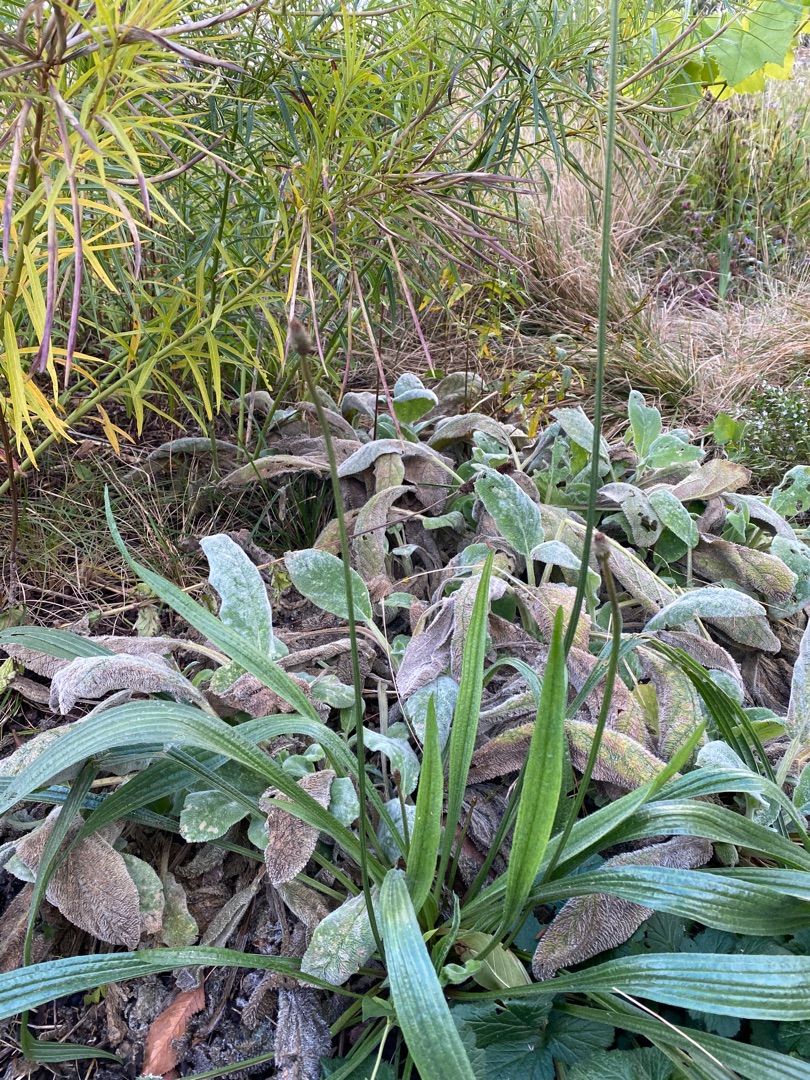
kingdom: Plantae
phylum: Tracheophyta
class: Magnoliopsida
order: Lamiales
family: Plantaginaceae
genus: Plantago
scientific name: Plantago lanceolata
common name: Lancet-vejbred
